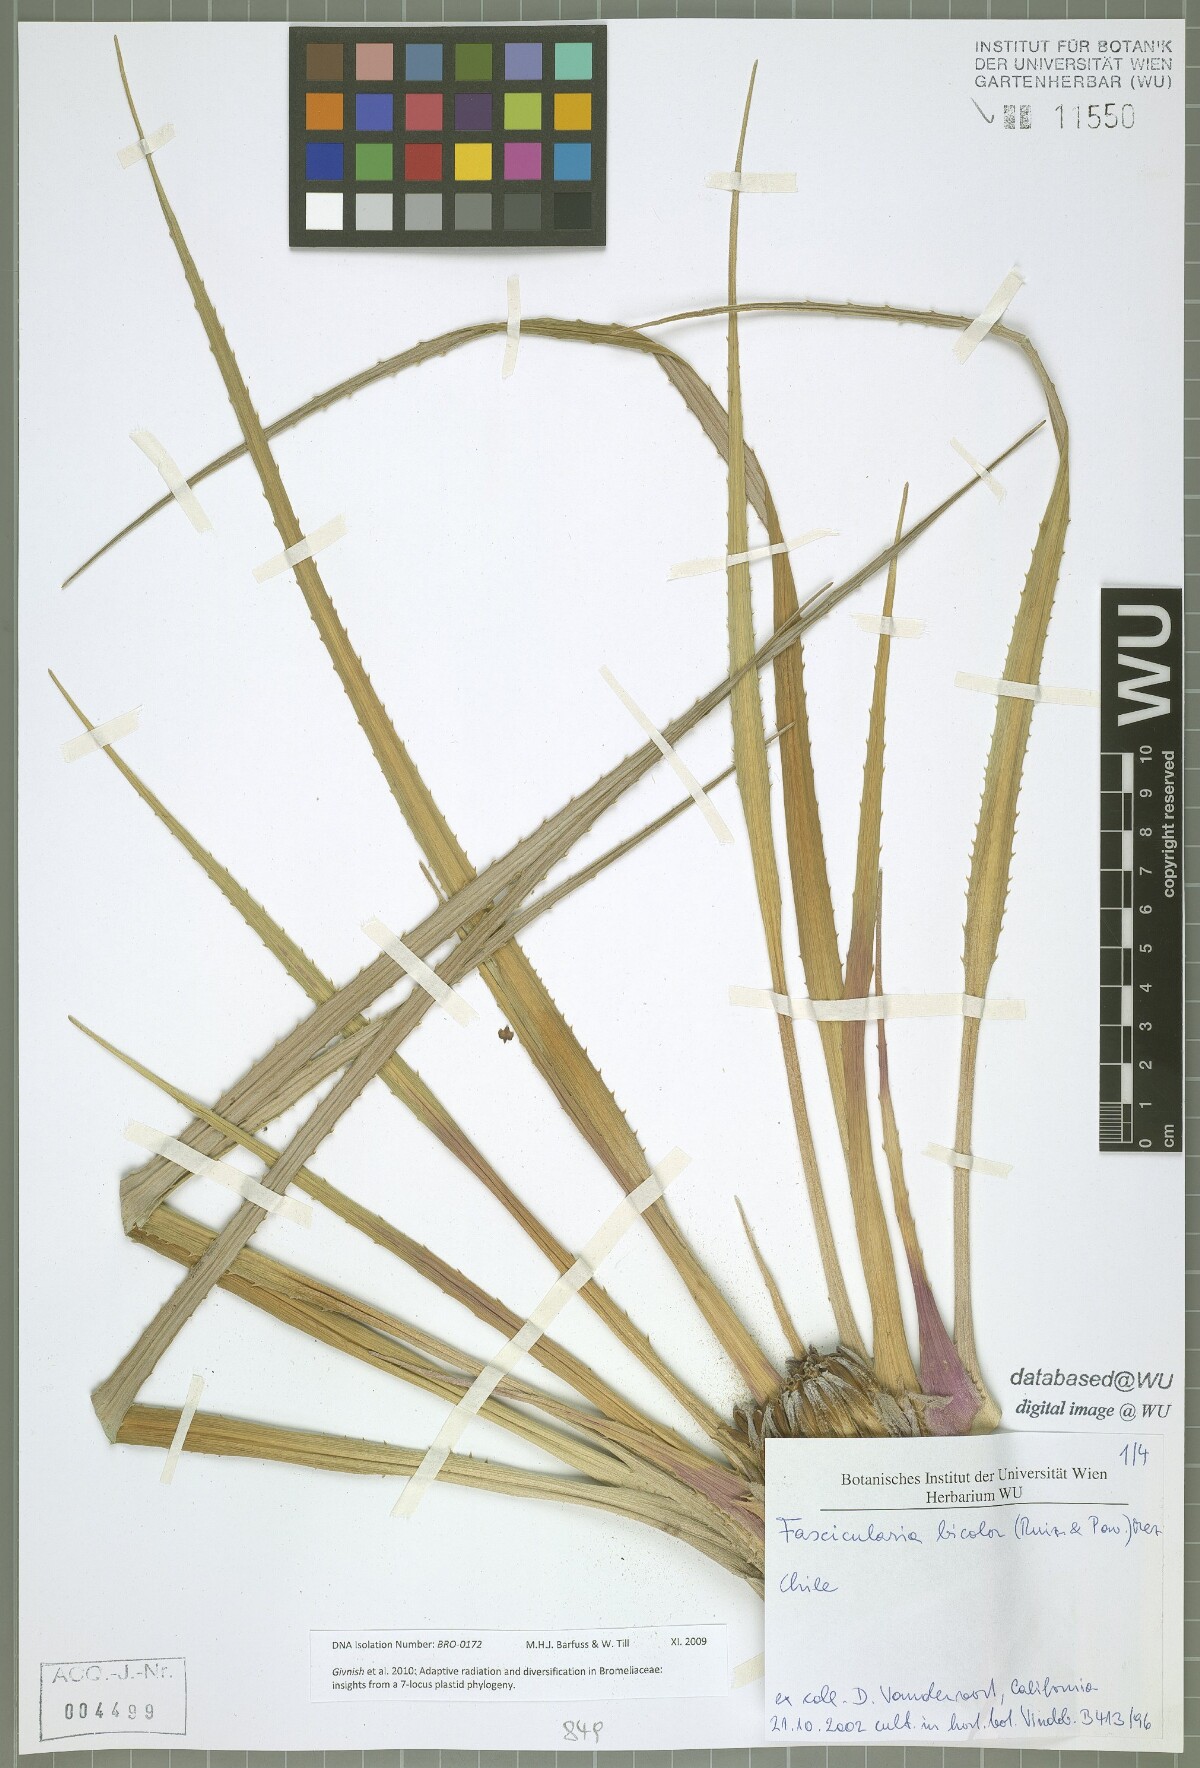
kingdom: Plantae
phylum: Tracheophyta
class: Liliopsida
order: Poales
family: Bromeliaceae
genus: Fascicularia
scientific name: Fascicularia bicolor
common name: Rhodostachys
